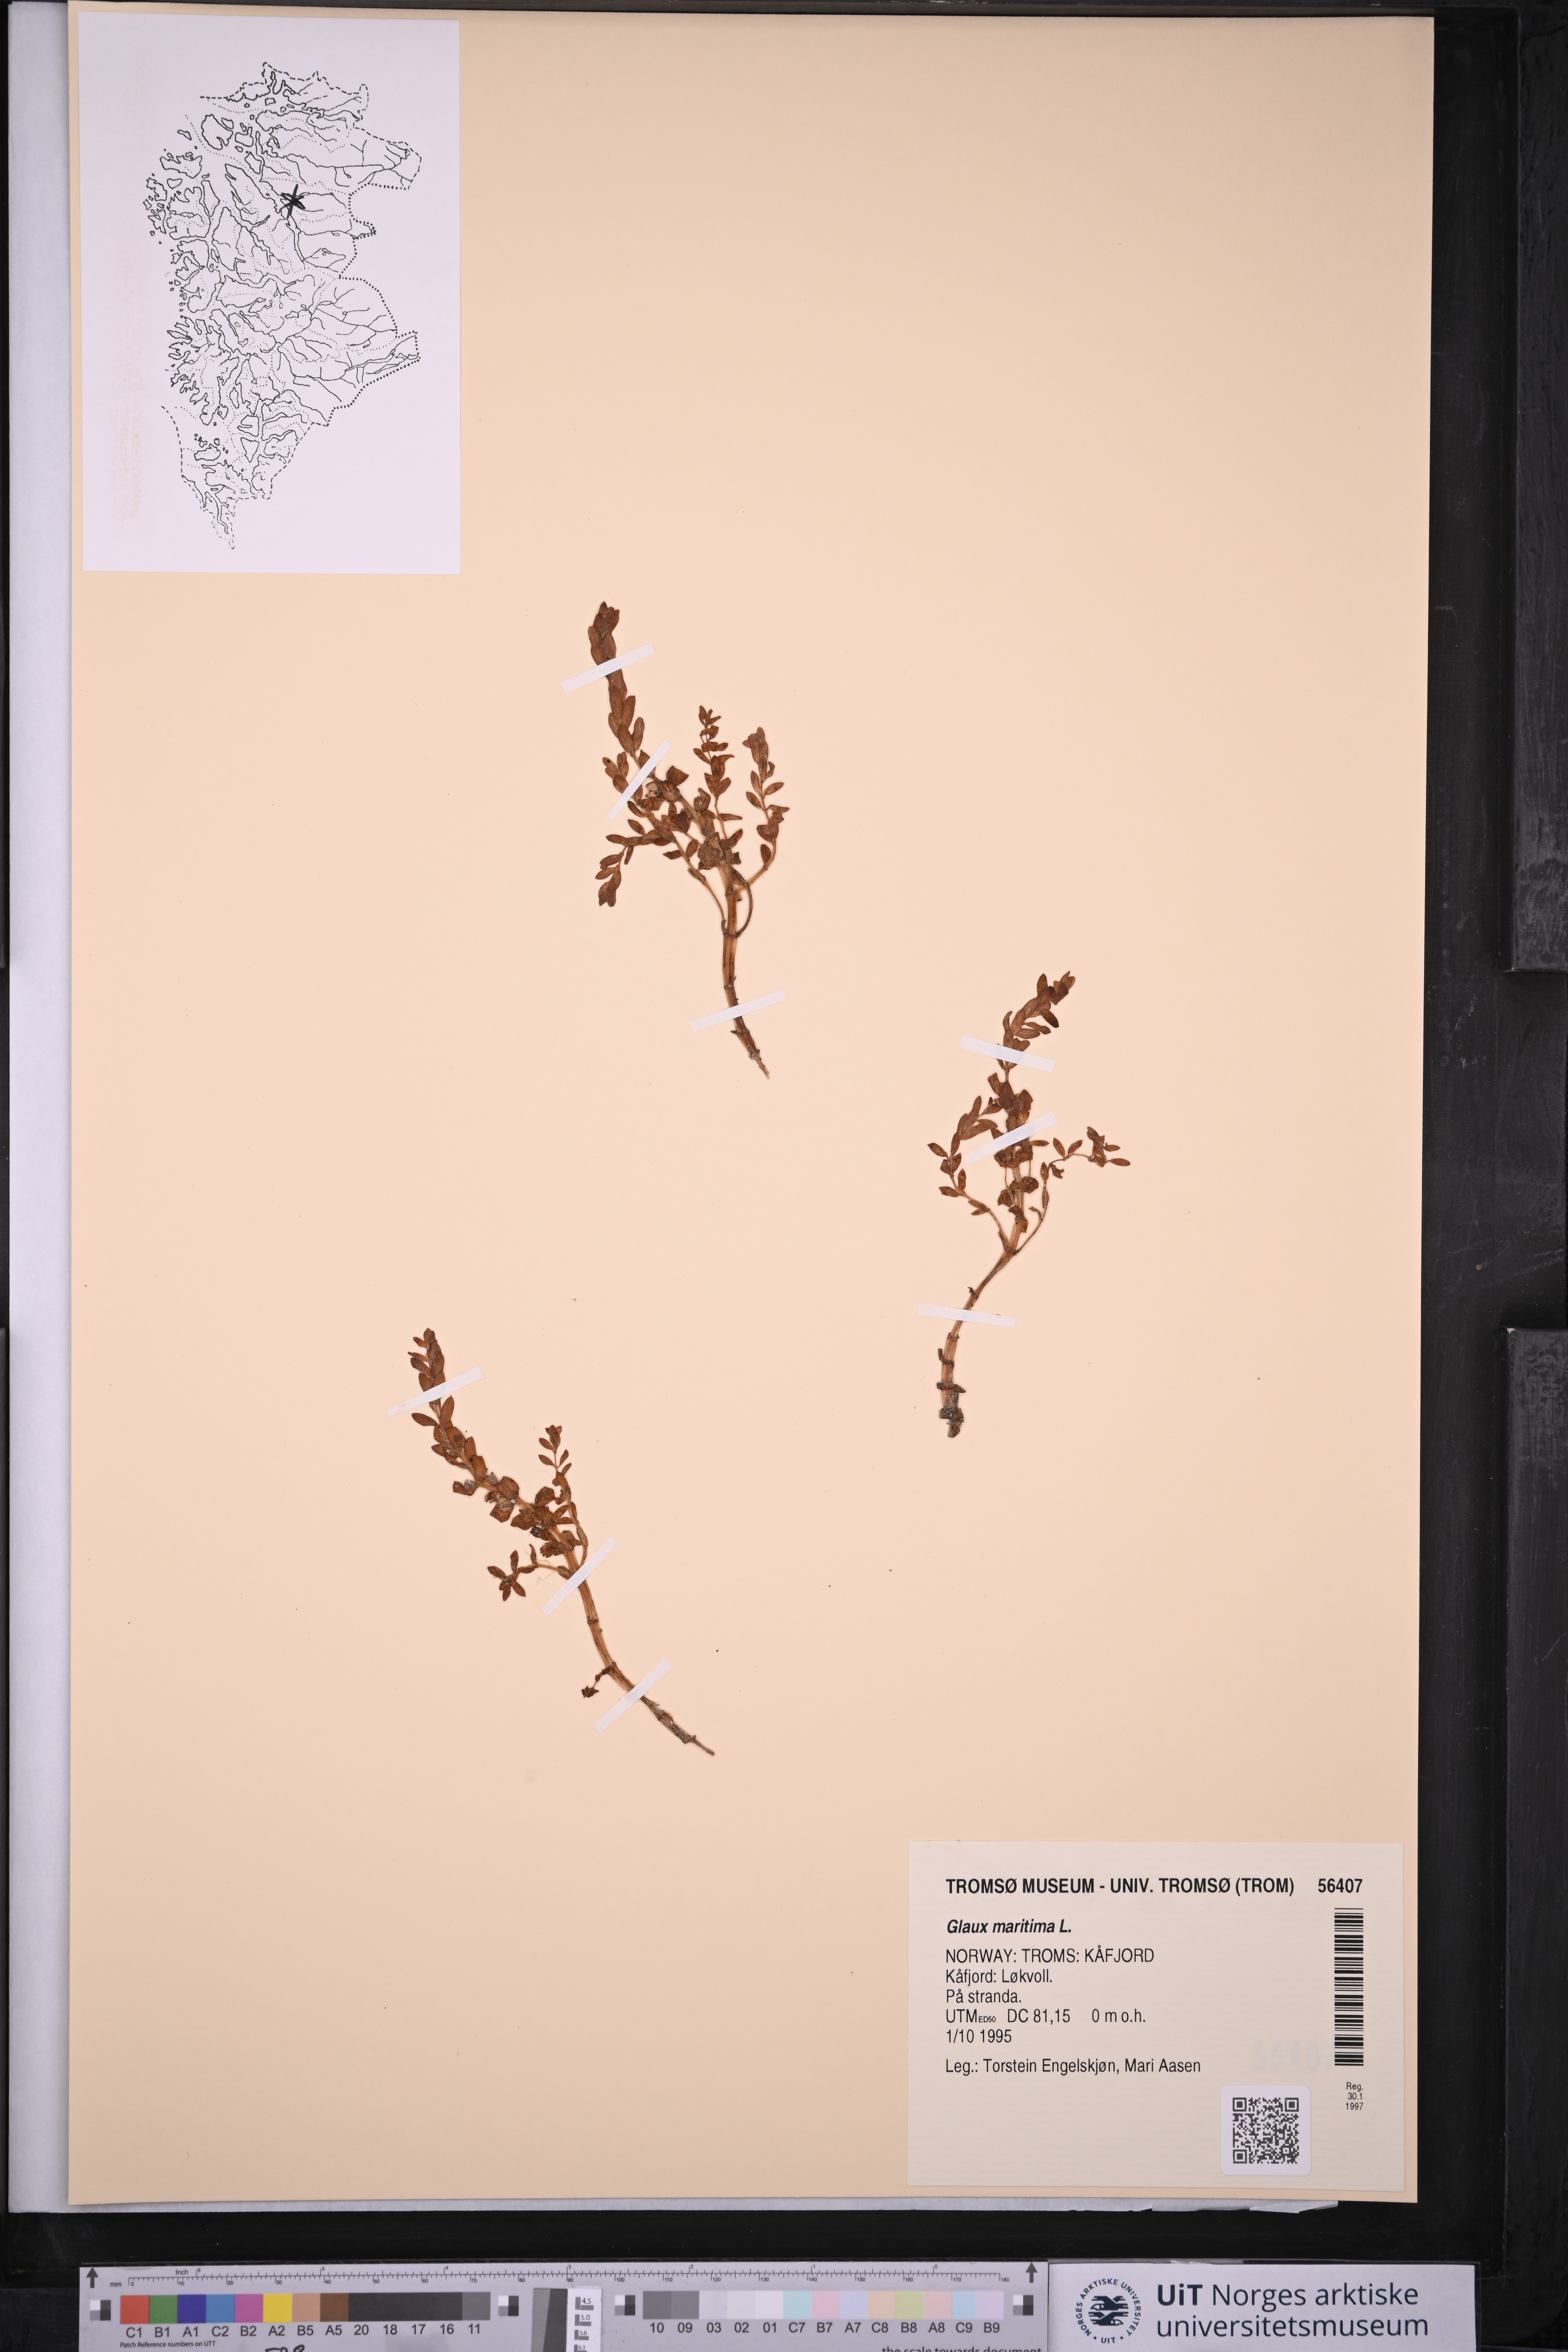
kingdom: Plantae
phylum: Tracheophyta
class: Magnoliopsida
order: Ericales
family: Primulaceae
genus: Lysimachia
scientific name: Lysimachia maritima
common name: Sea milkwort
